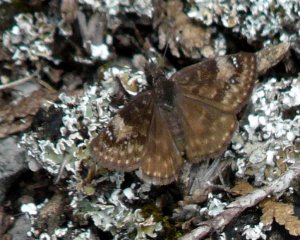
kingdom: Animalia
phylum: Arthropoda
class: Insecta
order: Lepidoptera
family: Hesperiidae
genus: Gesta
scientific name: Gesta
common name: Columbine Duskywing
